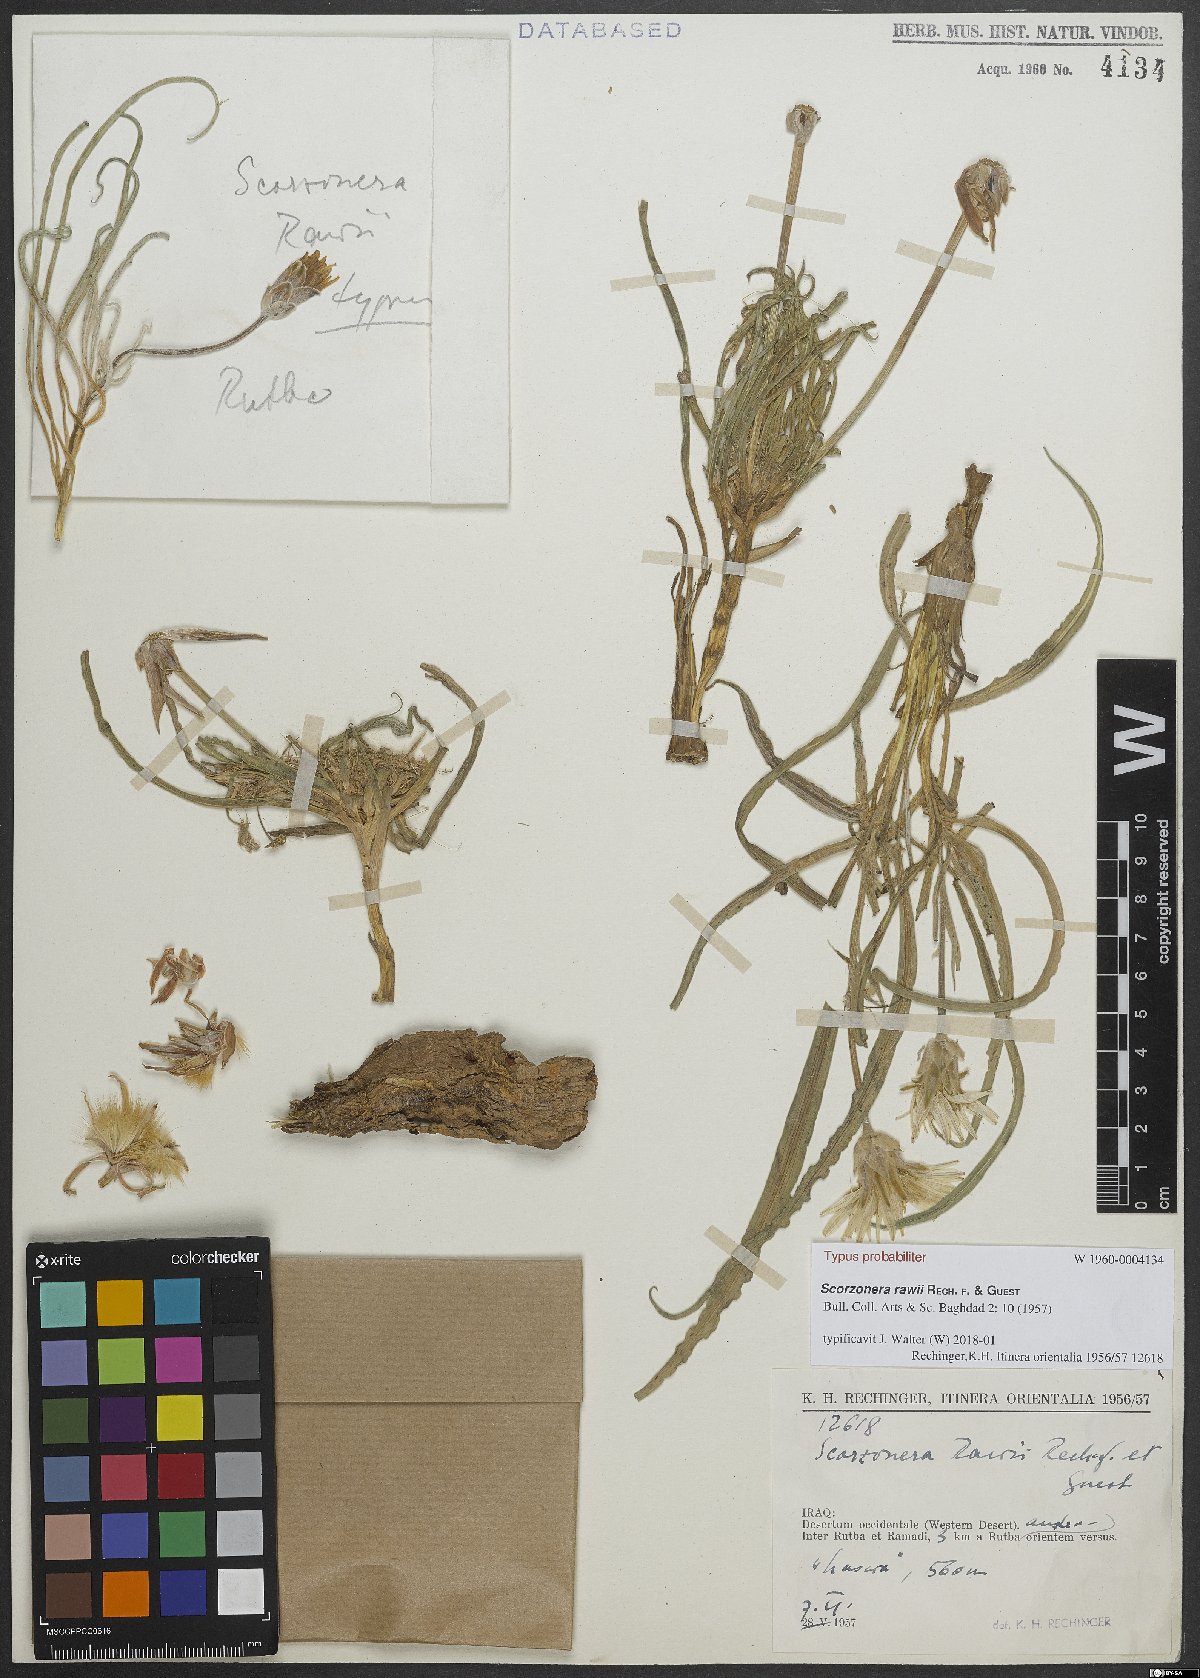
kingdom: Plantae
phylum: Tracheophyta
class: Magnoliopsida
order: Asterales
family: Asteraceae
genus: Scorzonera
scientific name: Scorzonera schweinfurthii
